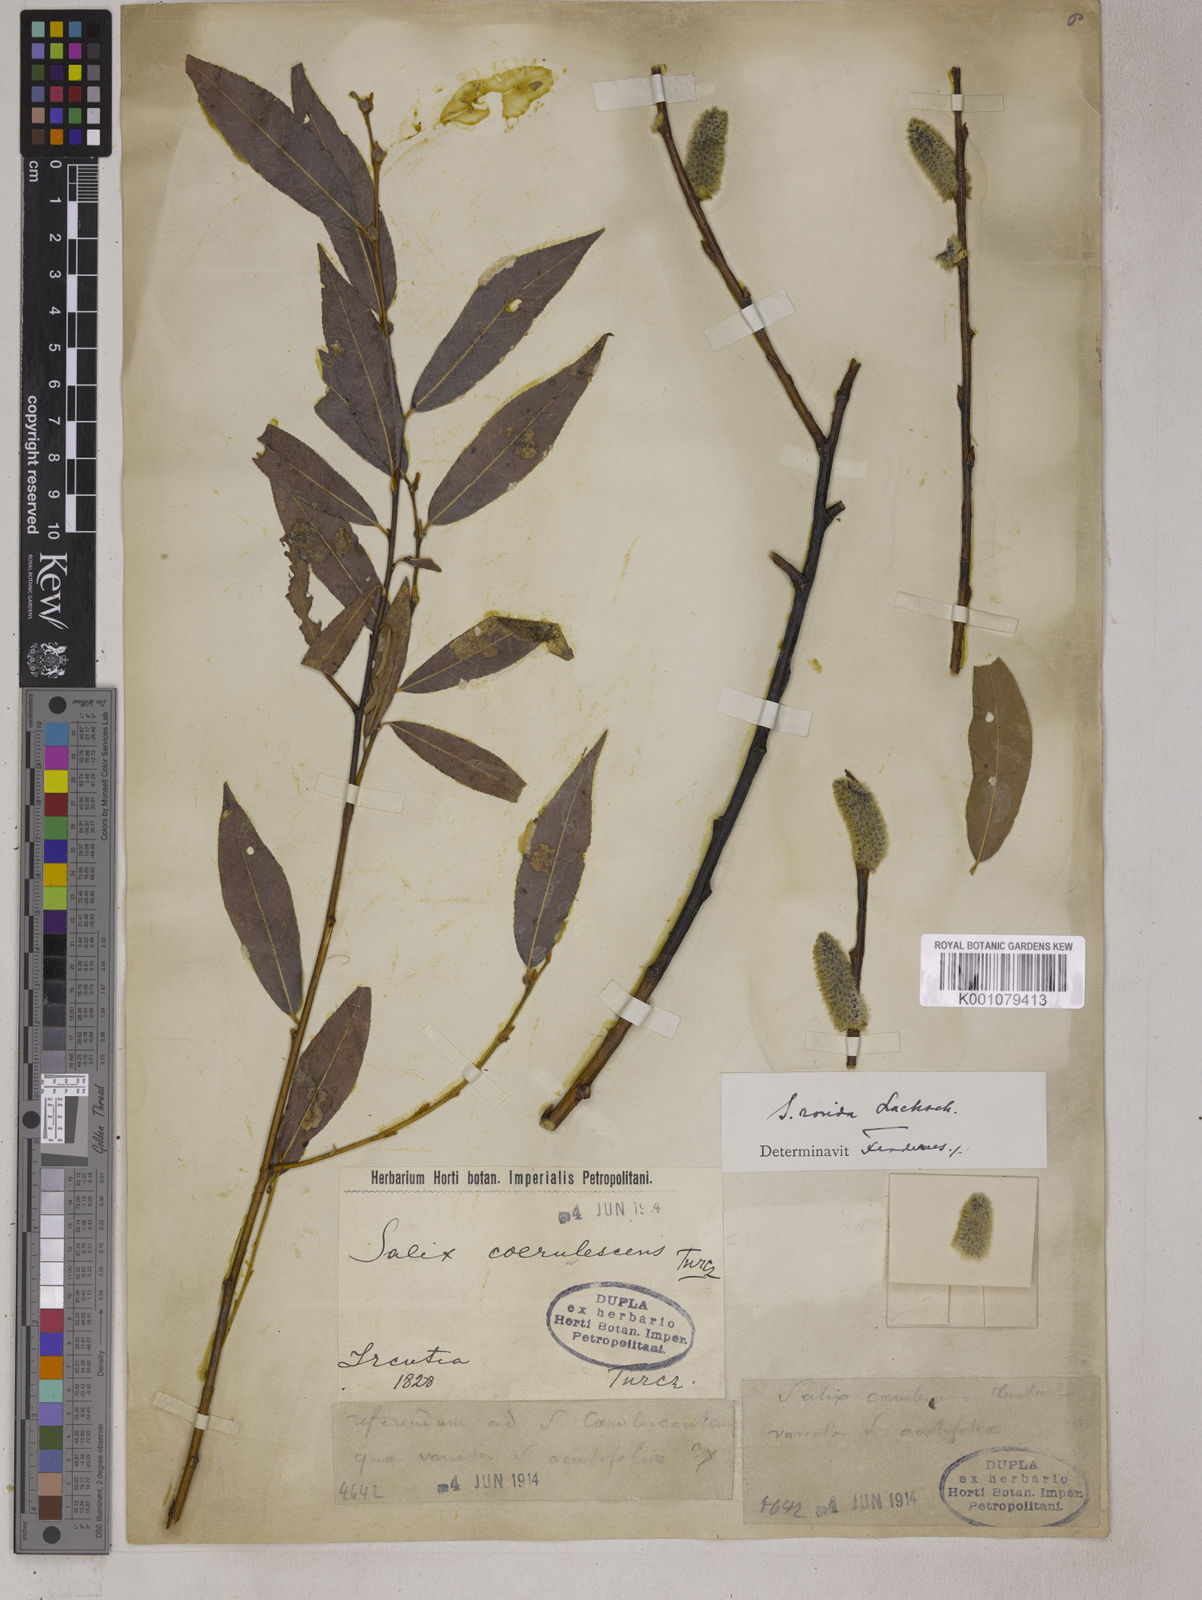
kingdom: Plantae
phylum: Tracheophyta
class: Magnoliopsida
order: Malpighiales
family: Salicaceae
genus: Salix
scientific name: Salix tonkinensis
